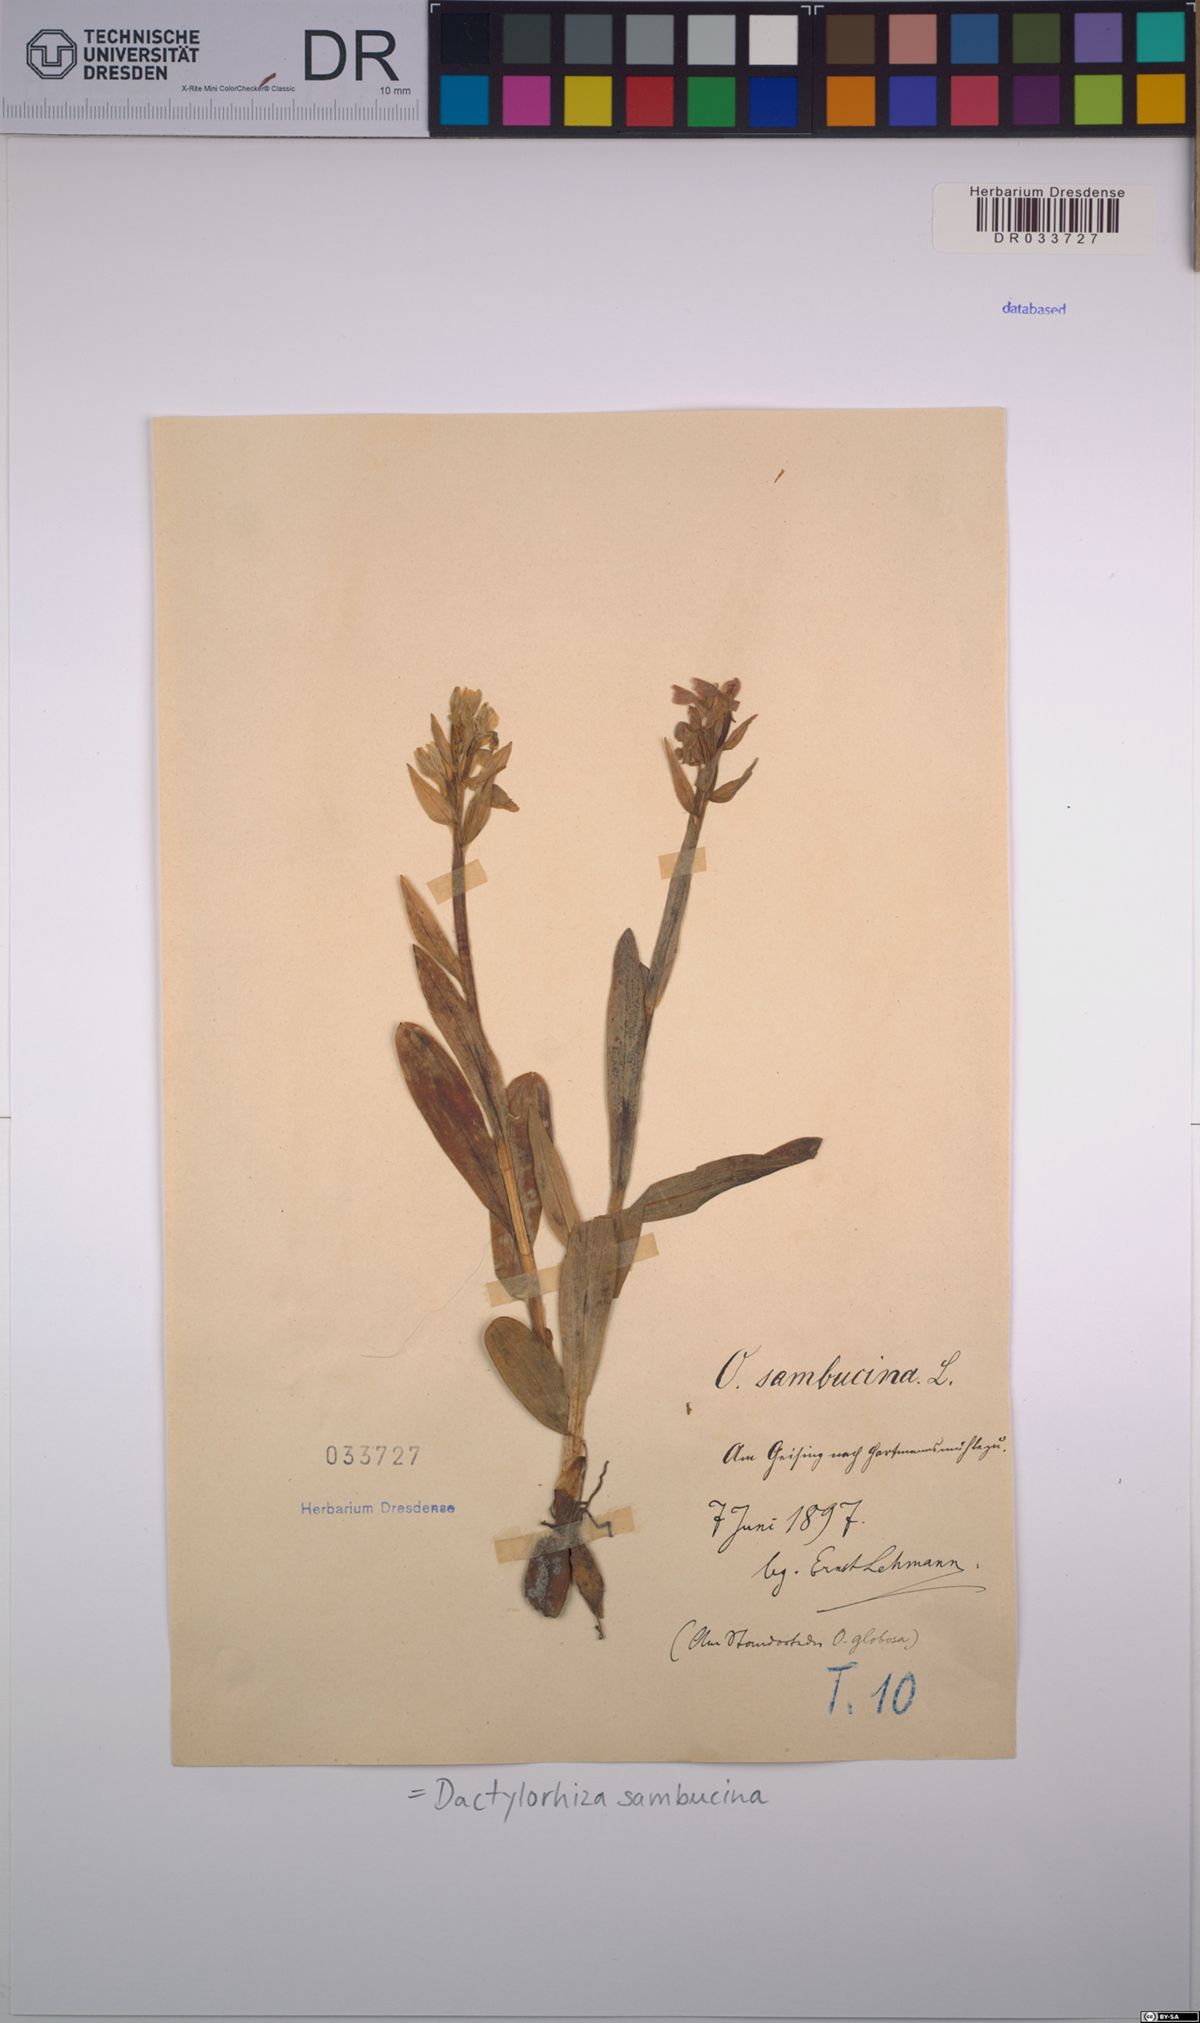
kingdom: Plantae
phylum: Tracheophyta
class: Liliopsida
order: Asparagales
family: Orchidaceae
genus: Dactylorhiza
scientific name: Dactylorhiza sambucina
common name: Elder-flowered orchid
